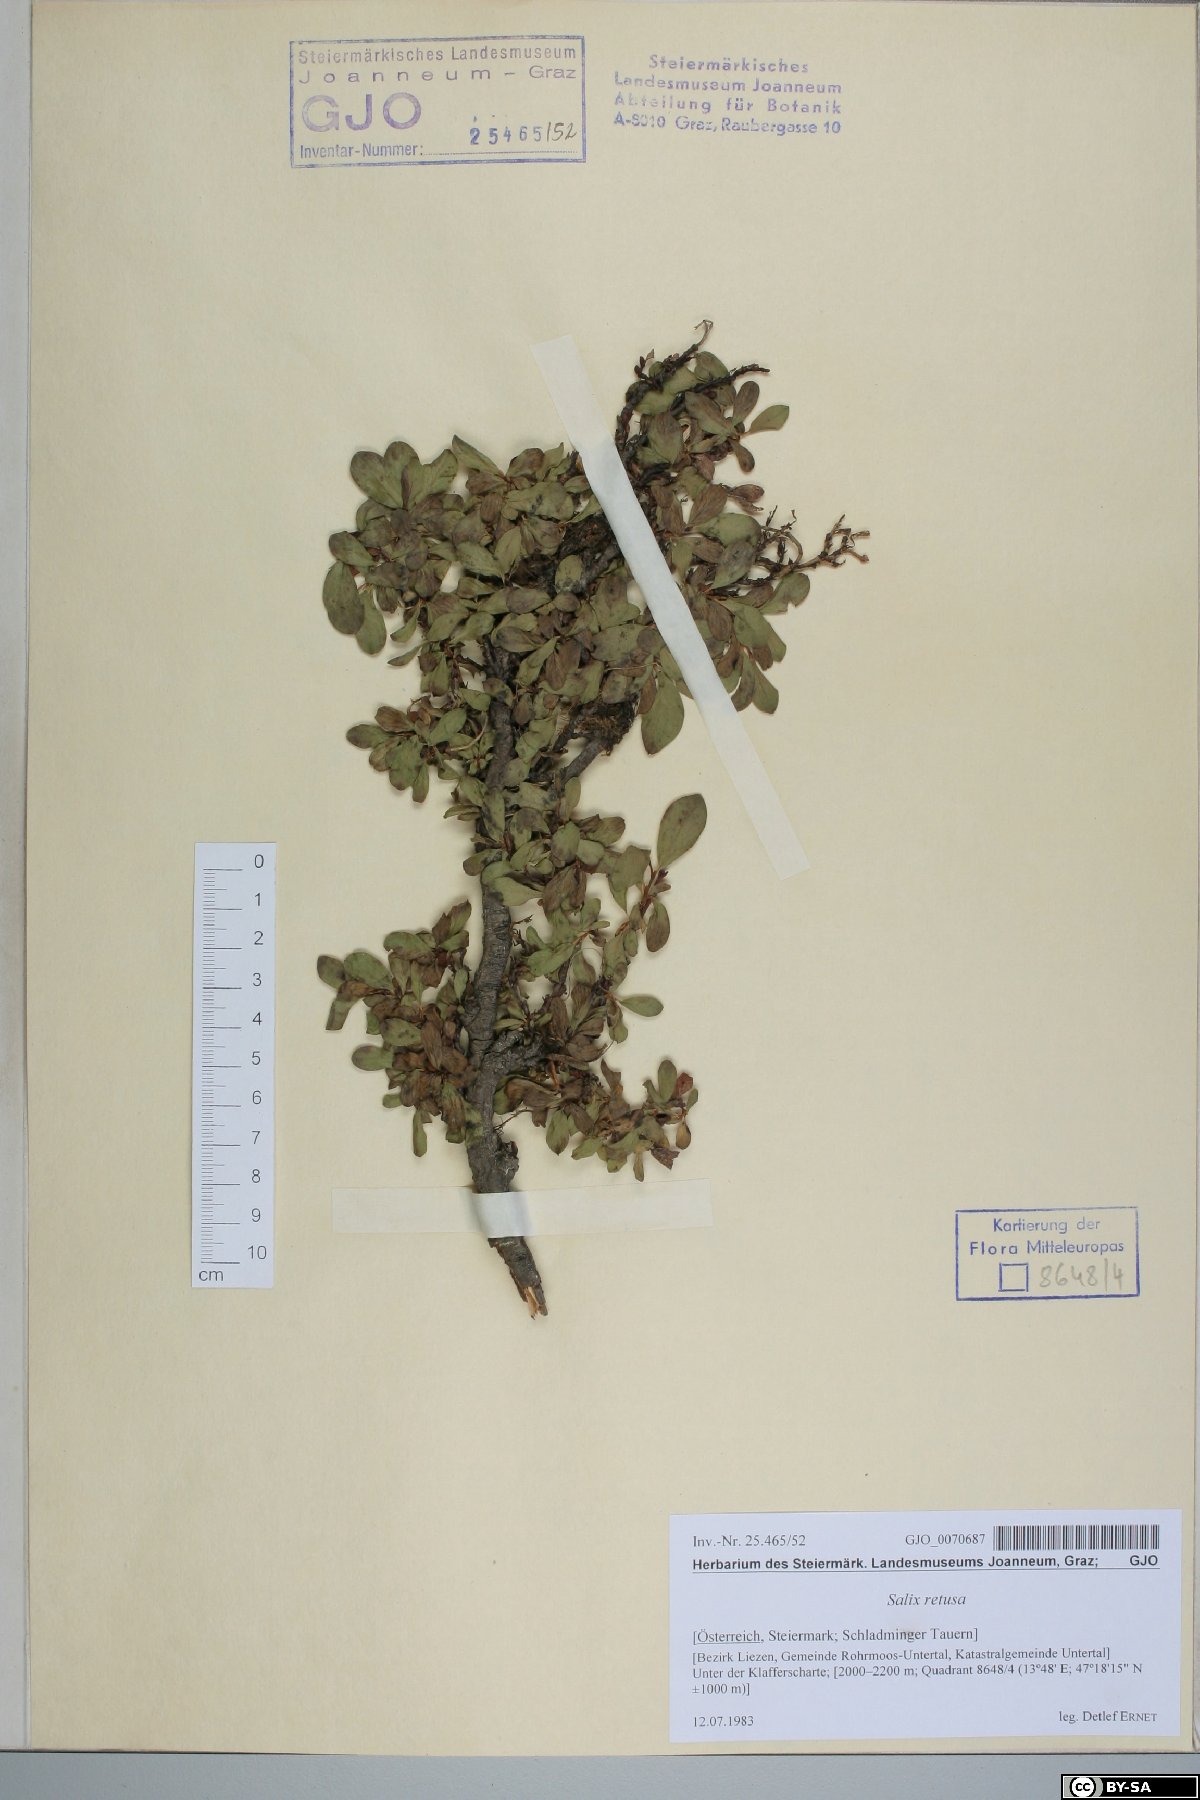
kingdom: Plantae
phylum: Tracheophyta
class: Magnoliopsida
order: Malpighiales
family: Salicaceae
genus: Salix
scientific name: Salix retusa
